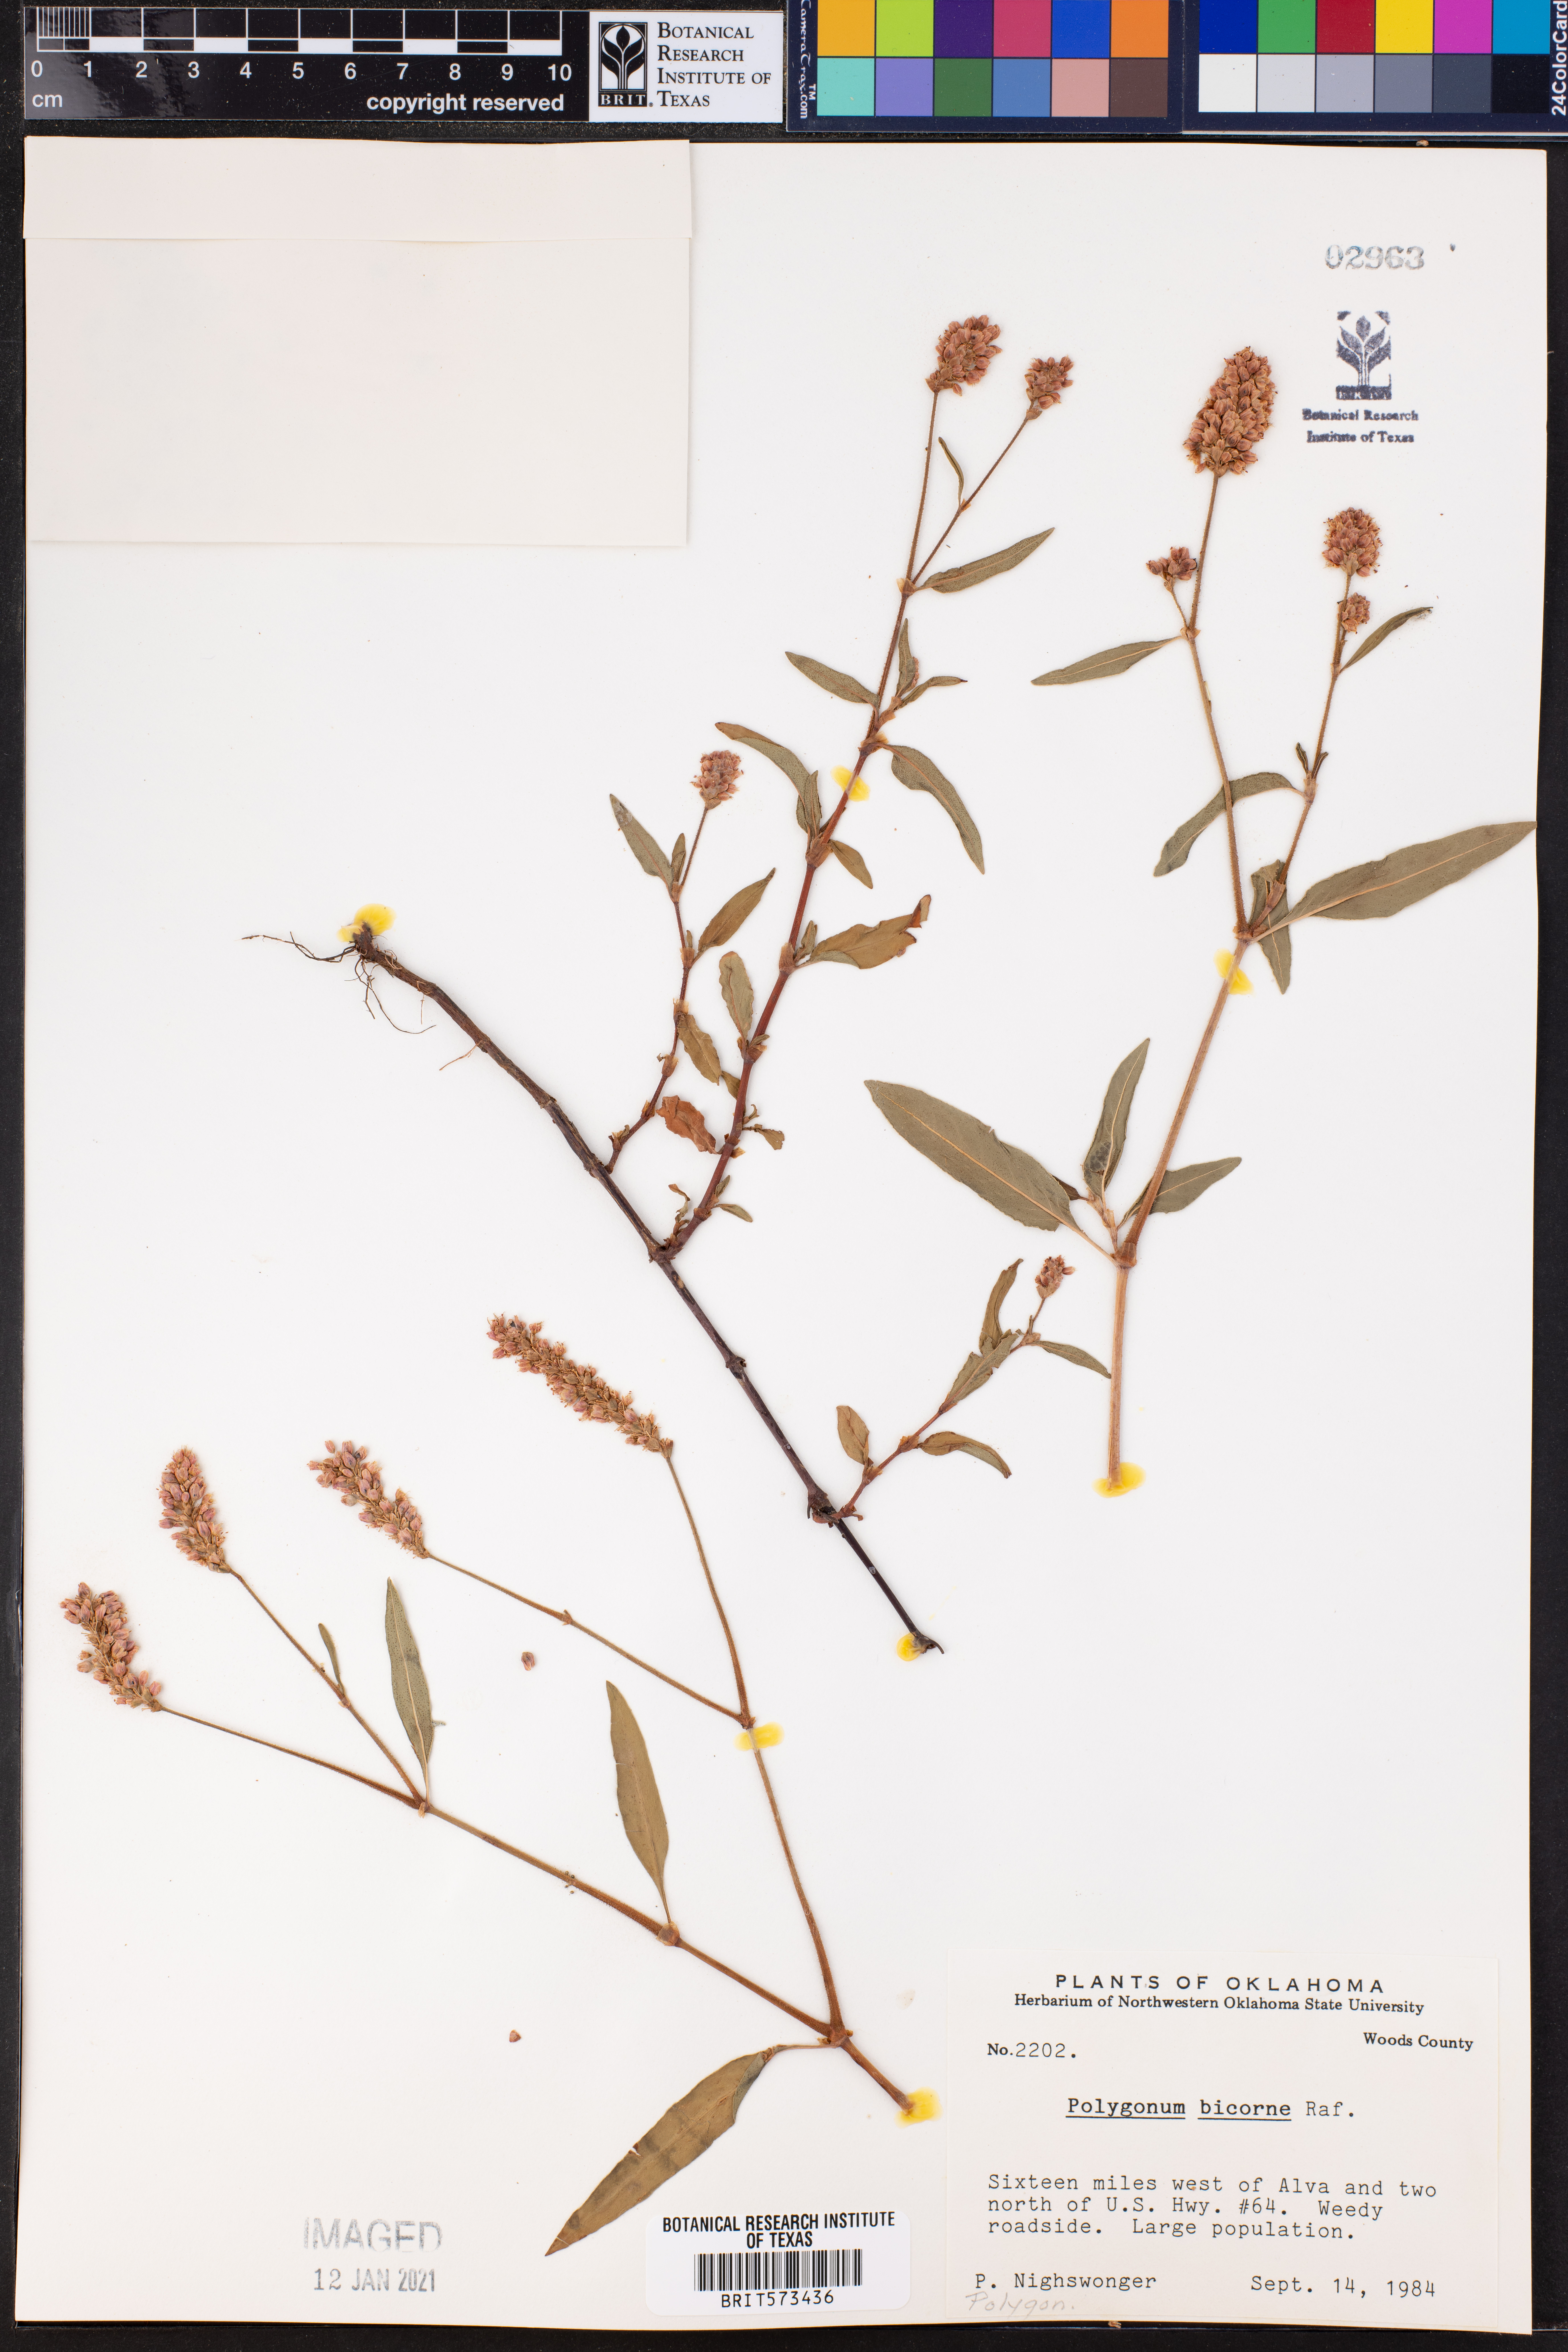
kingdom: Plantae
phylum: Tracheophyta
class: Magnoliopsida
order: Caryophyllales
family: Polygonaceae
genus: Persicaria
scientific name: Persicaria bicornis
